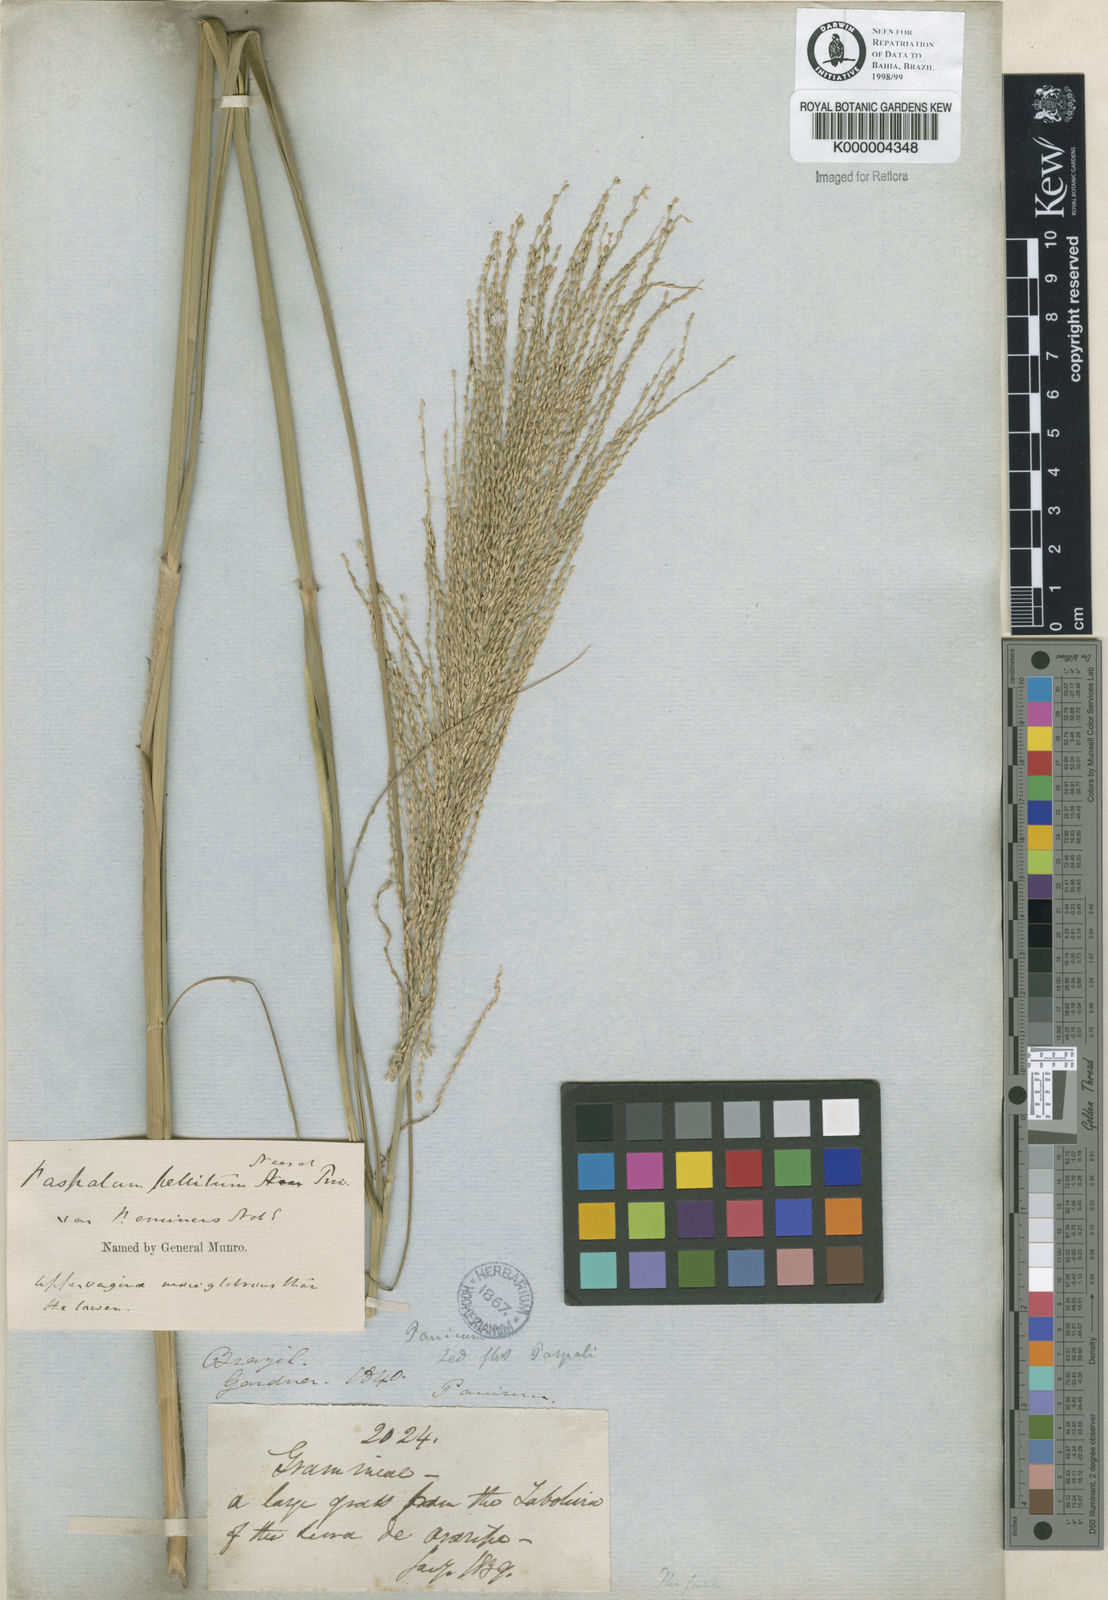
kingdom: Plantae
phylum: Tracheophyta
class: Liliopsida
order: Poales
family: Poaceae
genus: Axonopus
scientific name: Axonopus siccus
